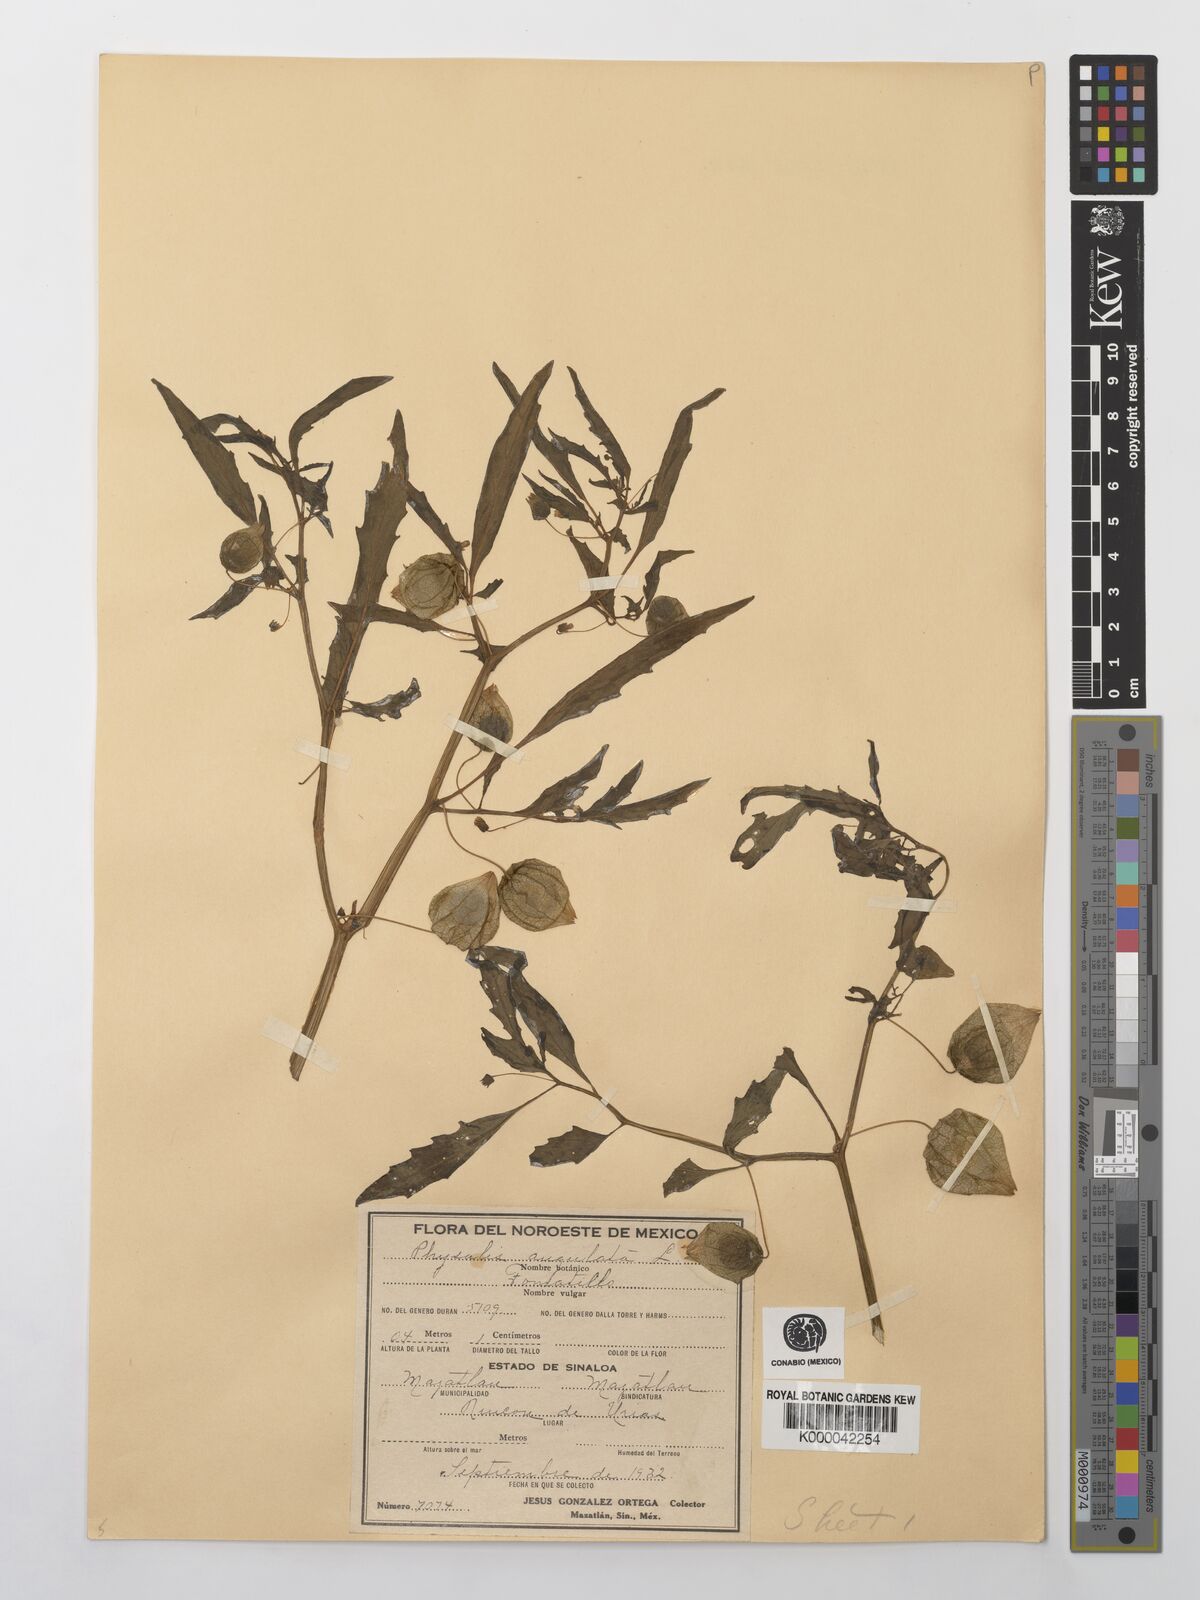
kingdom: Plantae
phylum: Tracheophyta
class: Magnoliopsida
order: Solanales
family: Solanaceae
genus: Physalis
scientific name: Physalis angulata
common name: Angular winter-cherry
